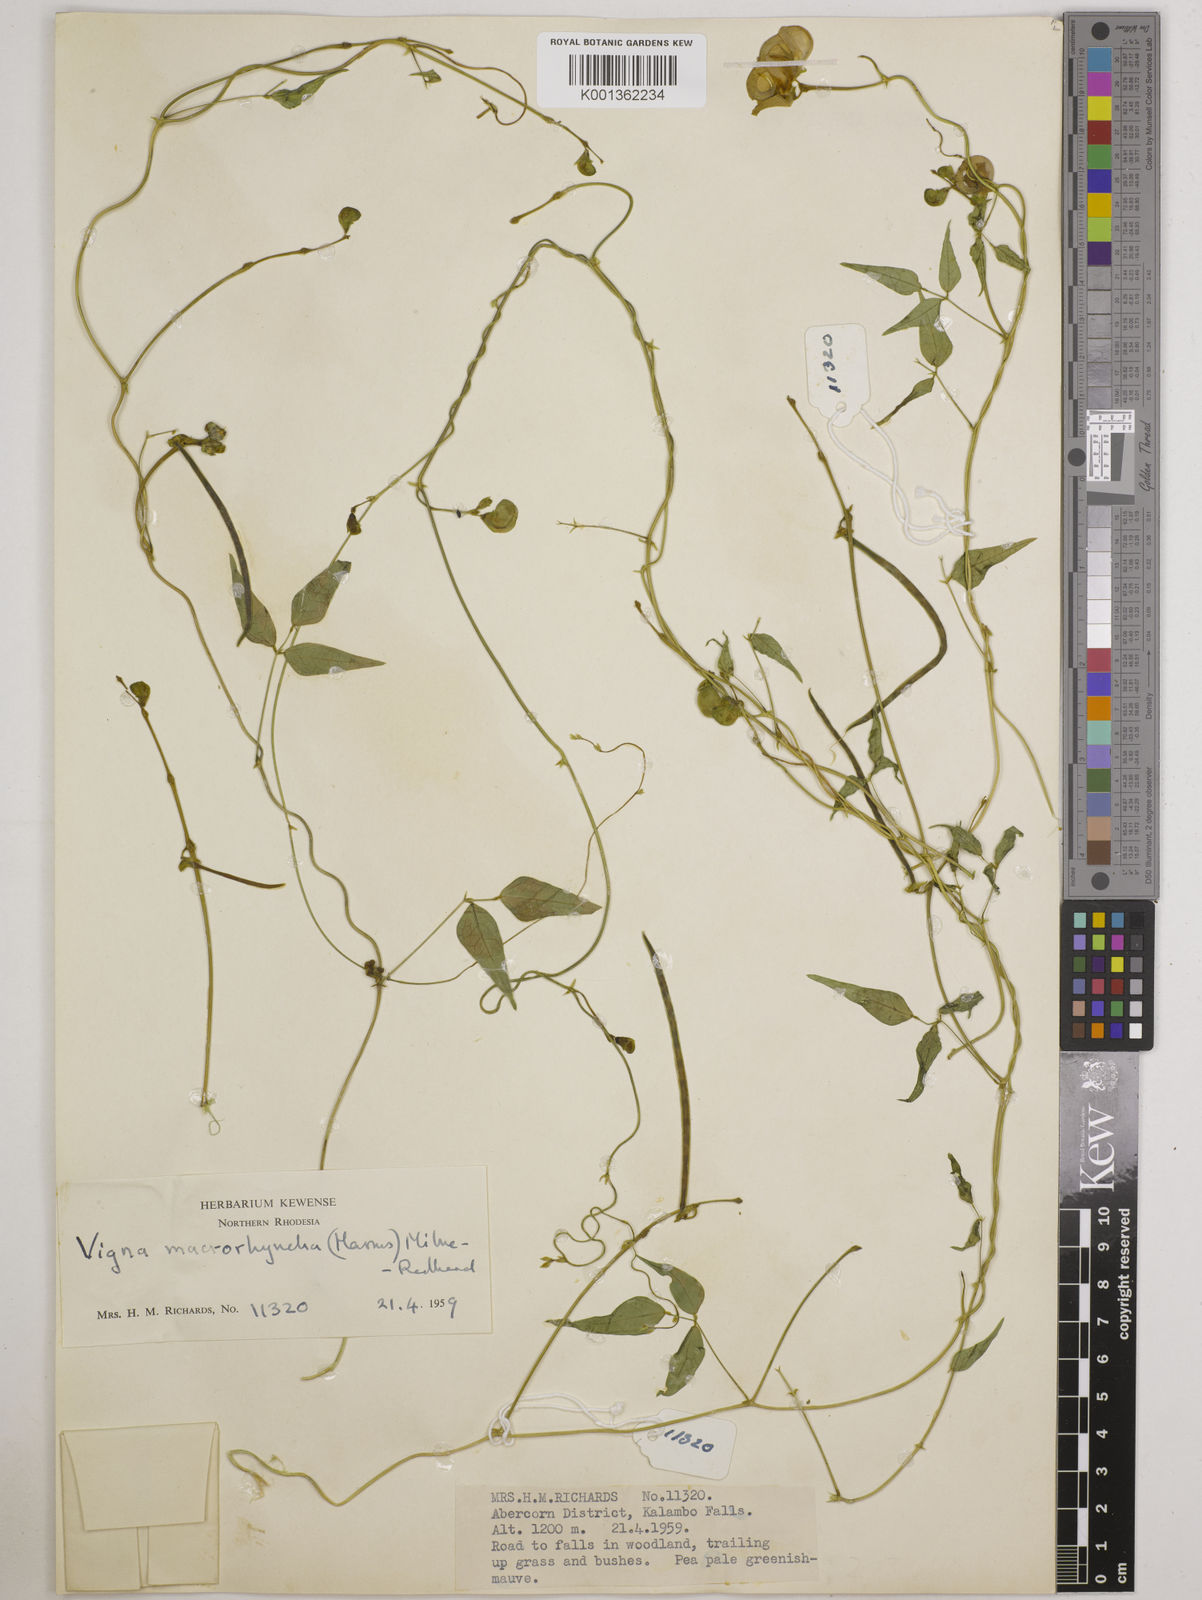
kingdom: Plantae
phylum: Tracheophyta
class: Magnoliopsida
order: Fabales
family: Fabaceae
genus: Wajira
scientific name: Wajira grahamiana
